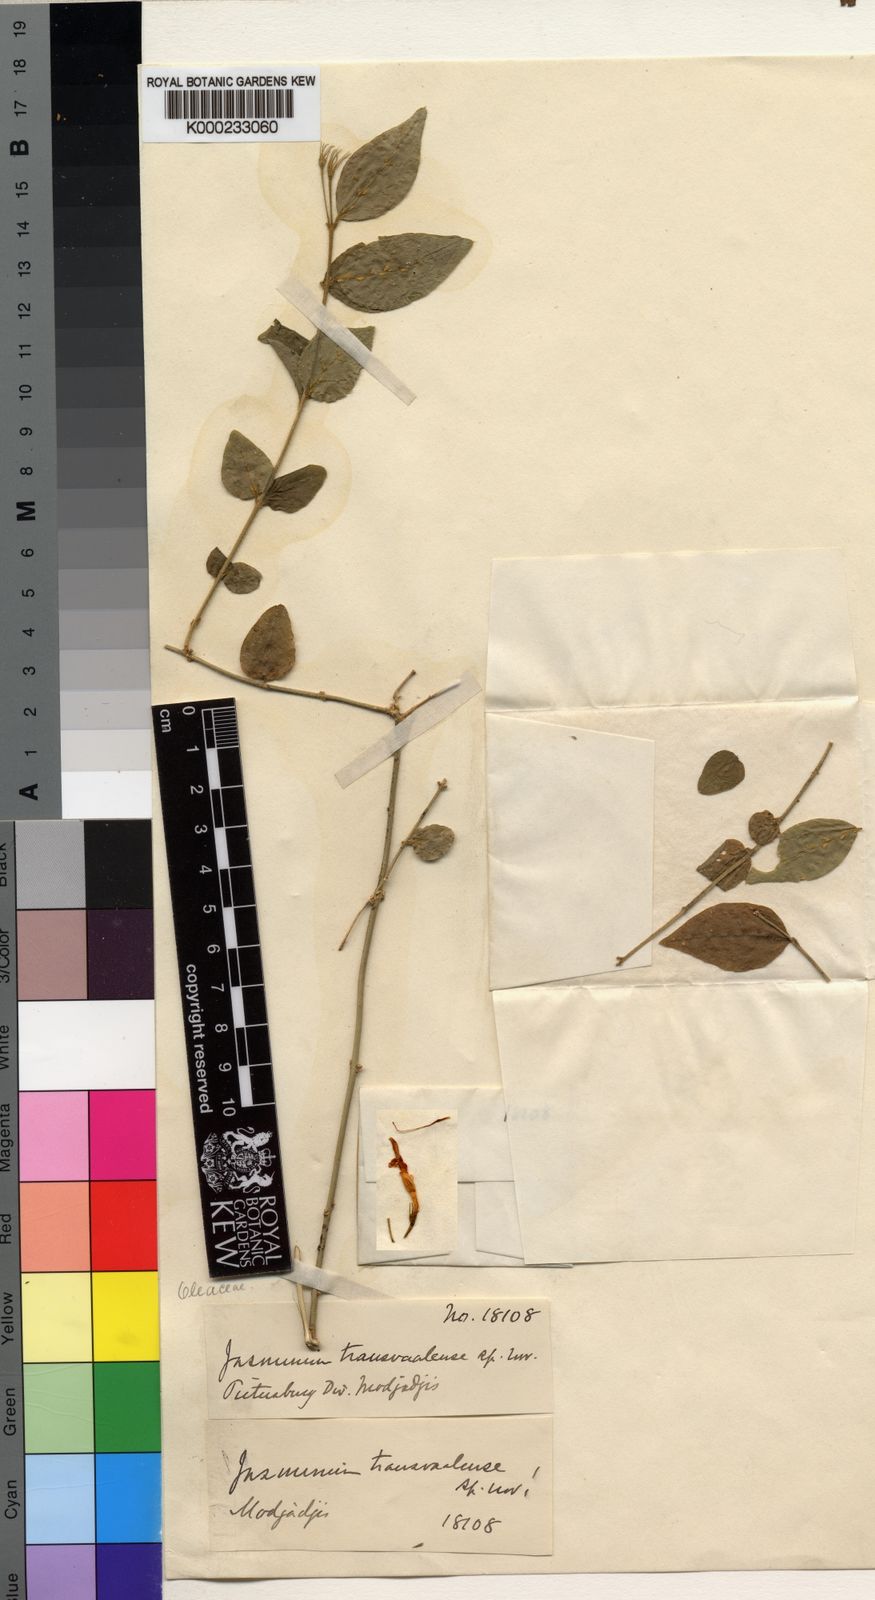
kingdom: Plantae
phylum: Tracheophyta
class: Magnoliopsida
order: Lamiales
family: Oleaceae
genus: Jasminum
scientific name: Jasminum
